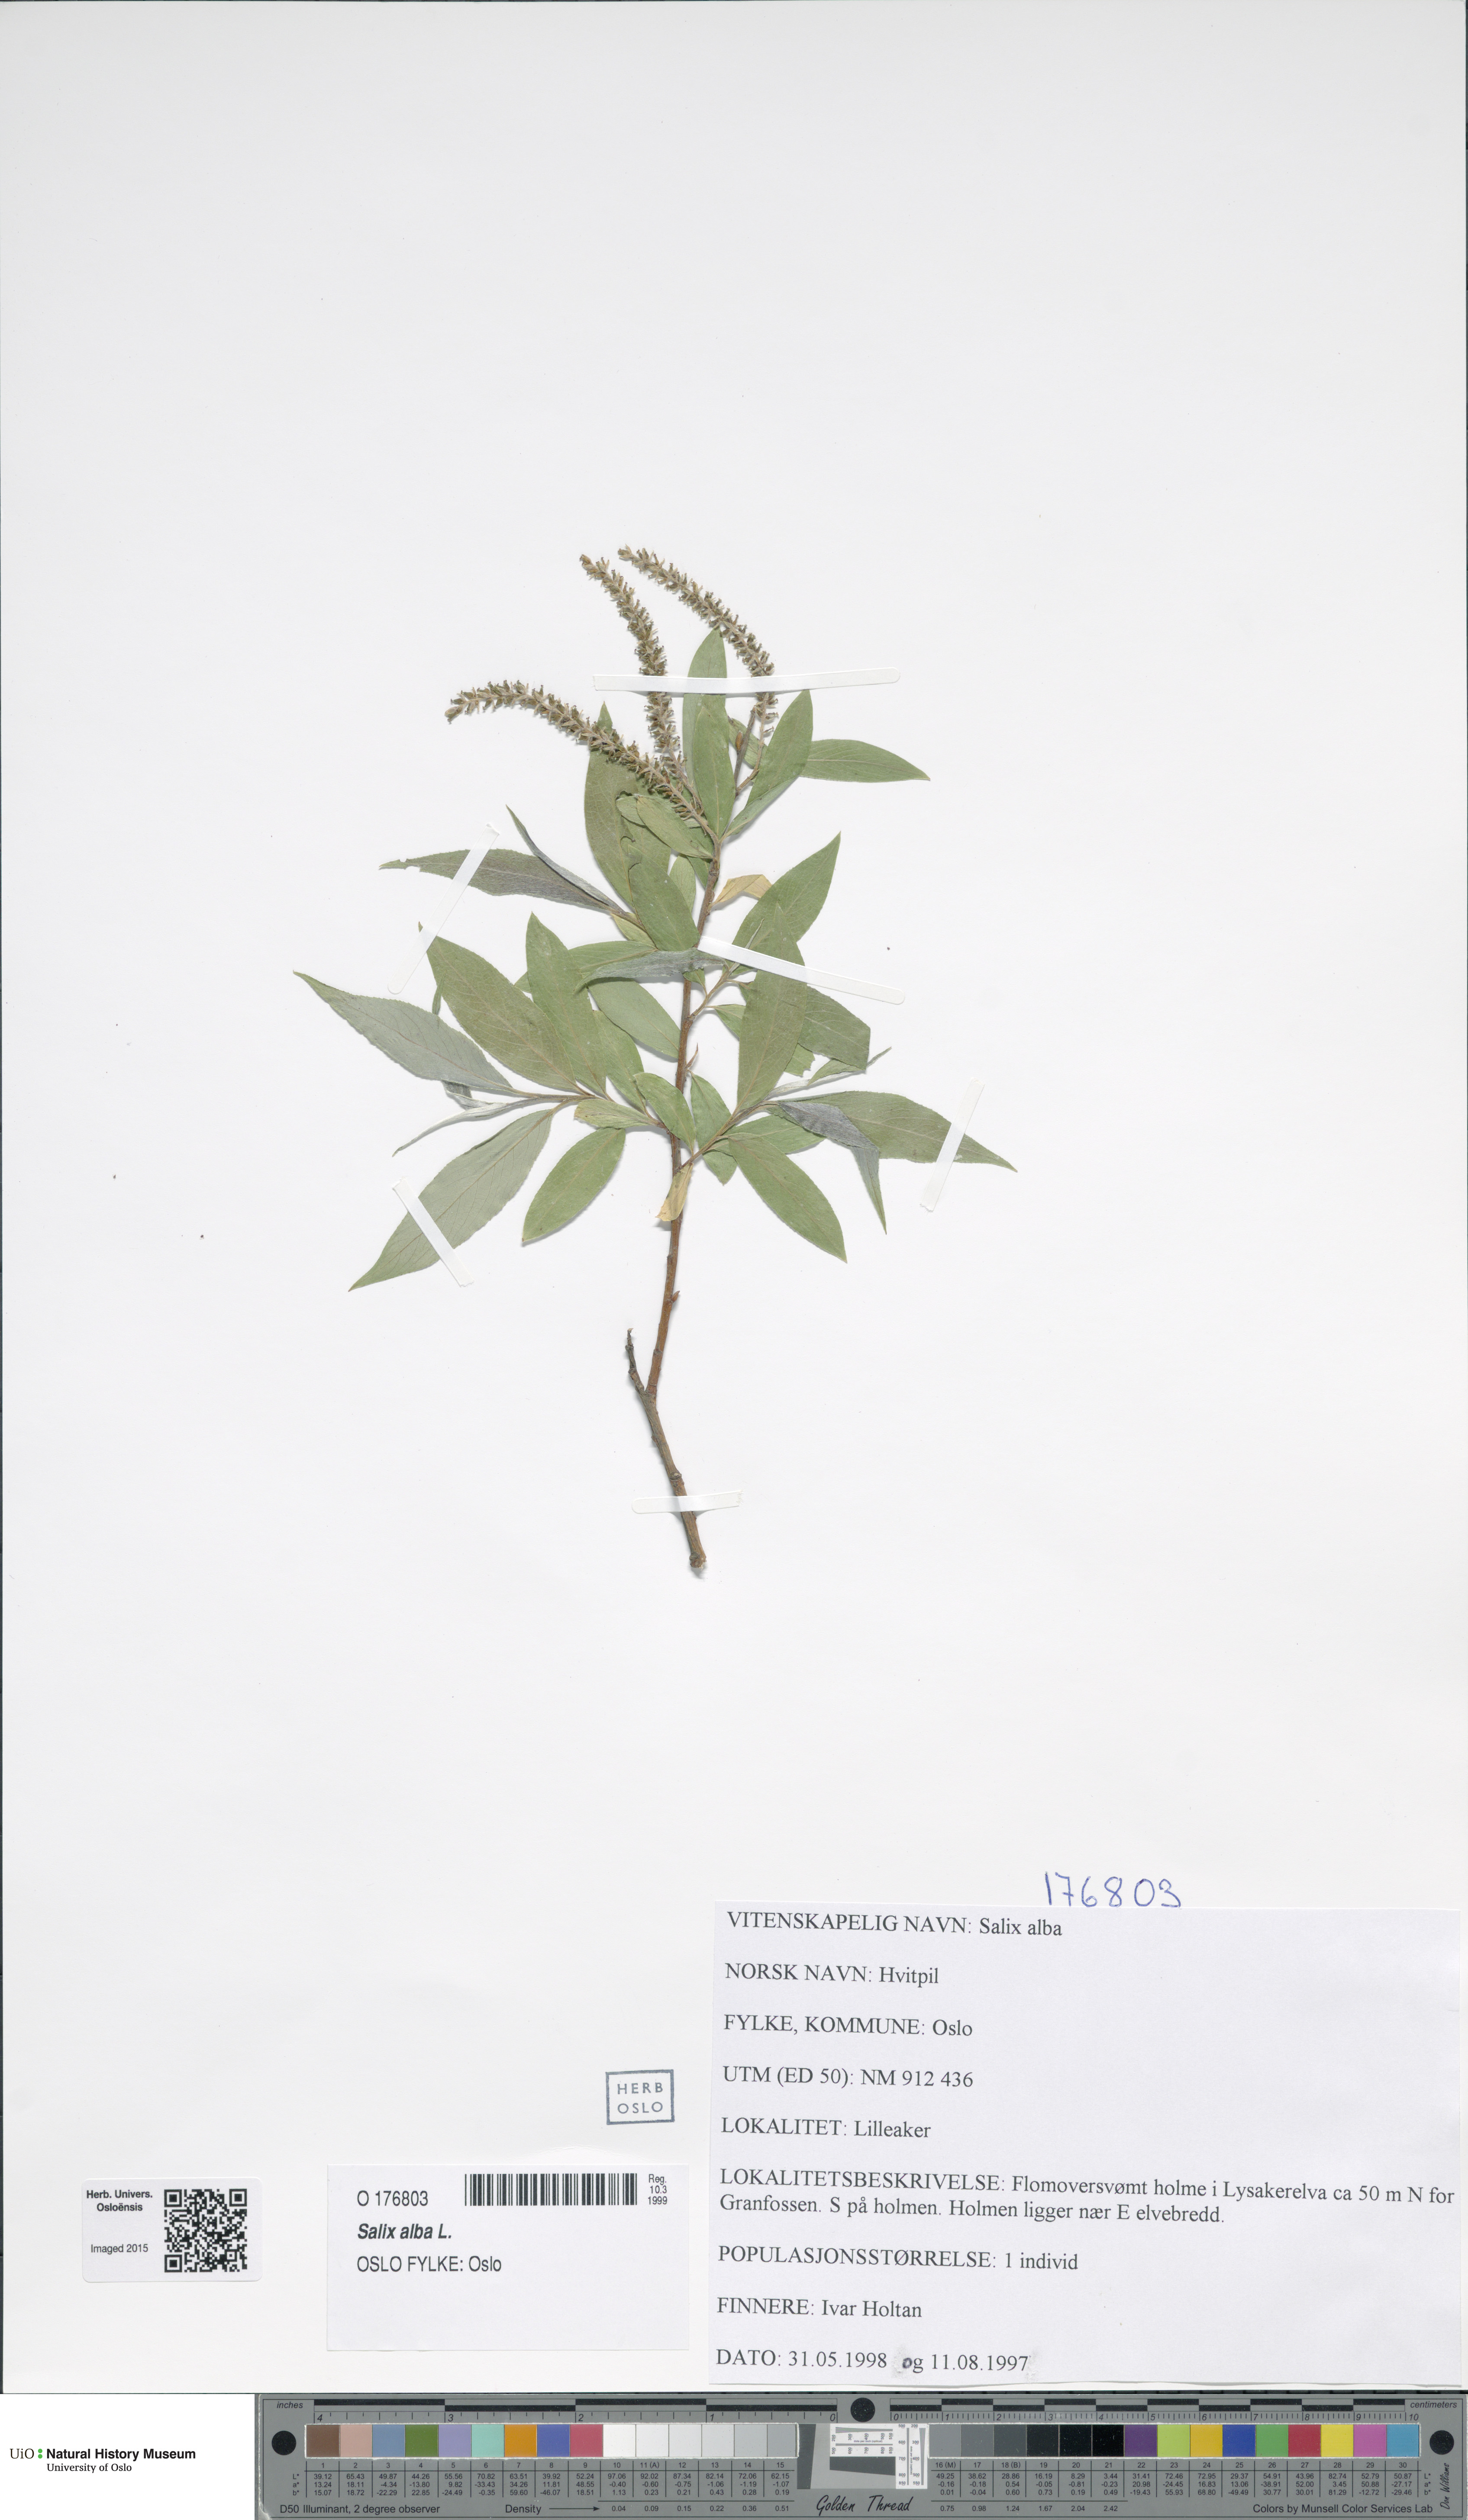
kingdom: Plantae
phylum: Tracheophyta
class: Magnoliopsida
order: Malpighiales
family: Salicaceae
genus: Salix
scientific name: Salix alba
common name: White willow
